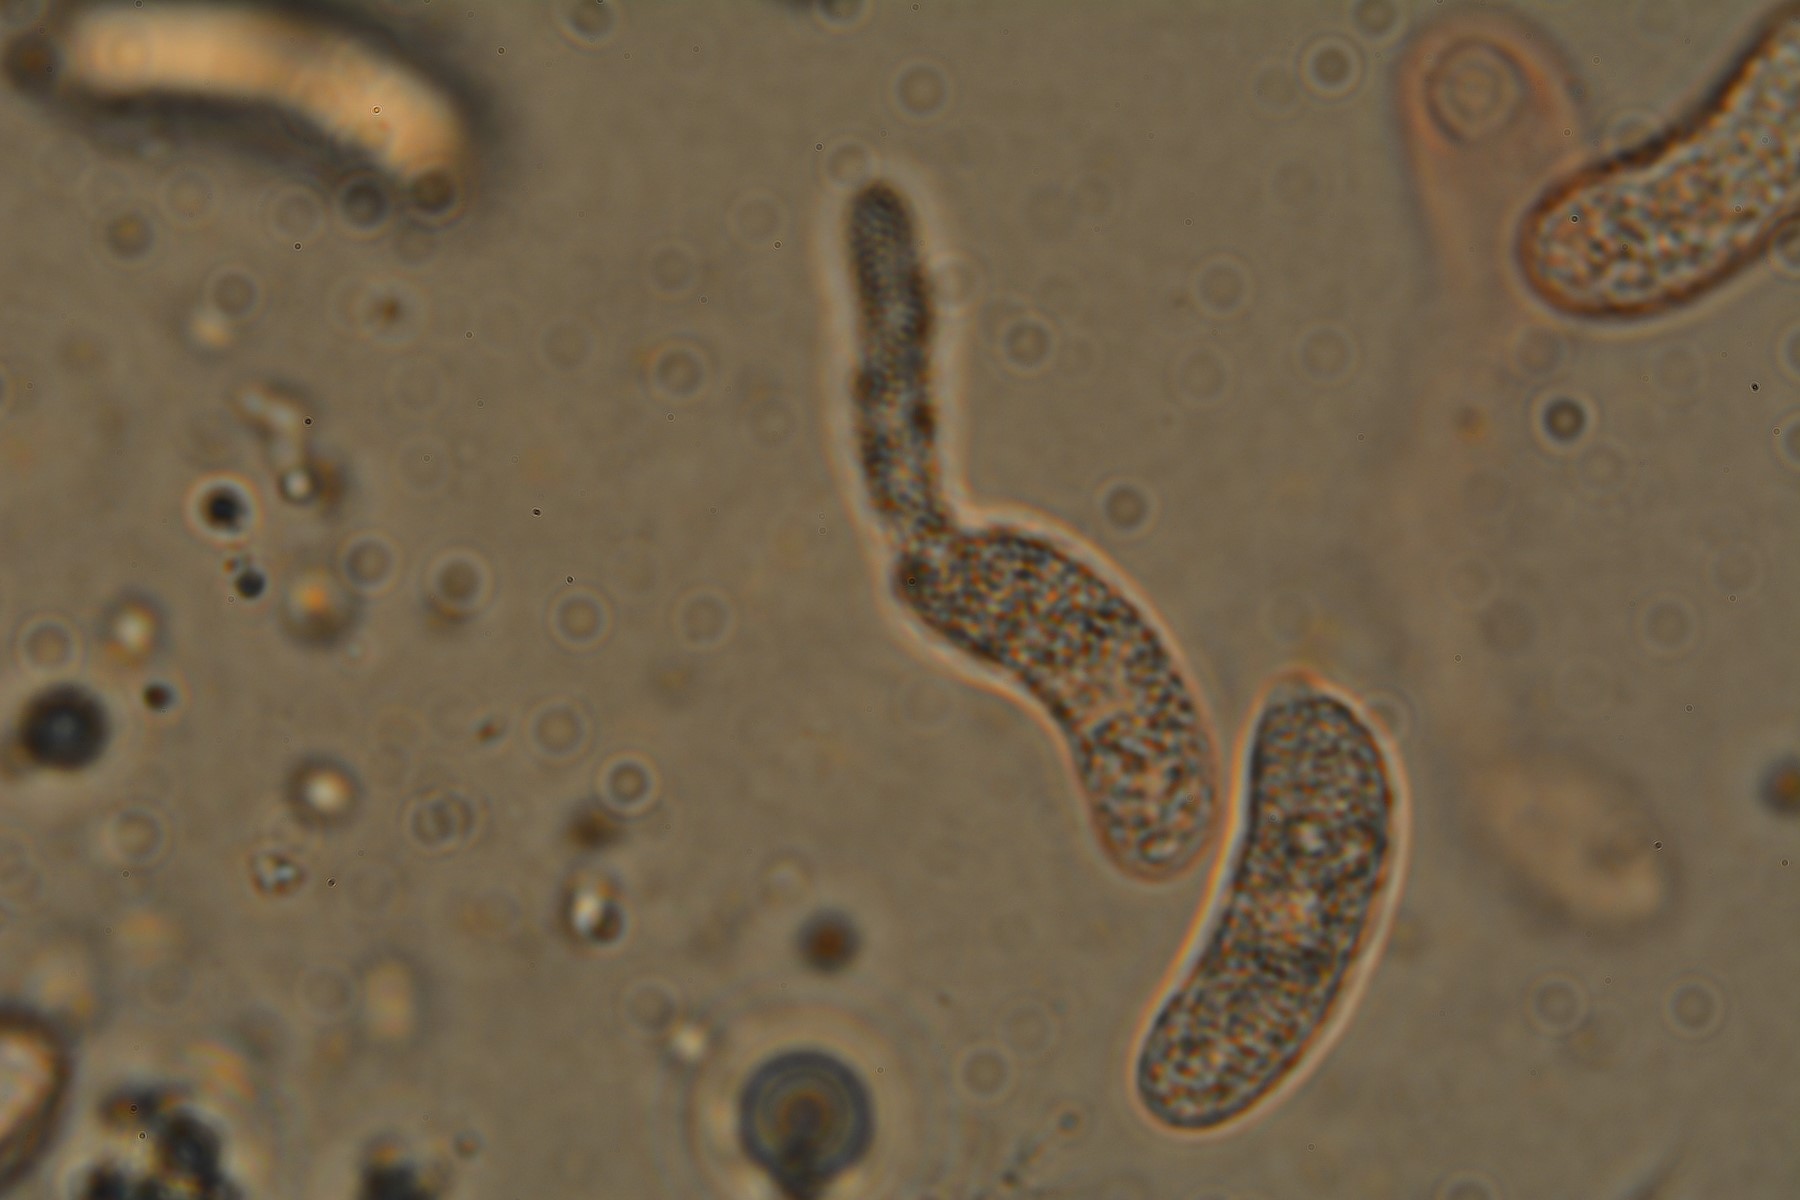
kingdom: Fungi
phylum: Basidiomycota
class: Agaricomycetes
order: Auriculariales
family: Auriculariaceae
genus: Exidia
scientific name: Exidia thuretiana
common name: hvidlig bævretop
